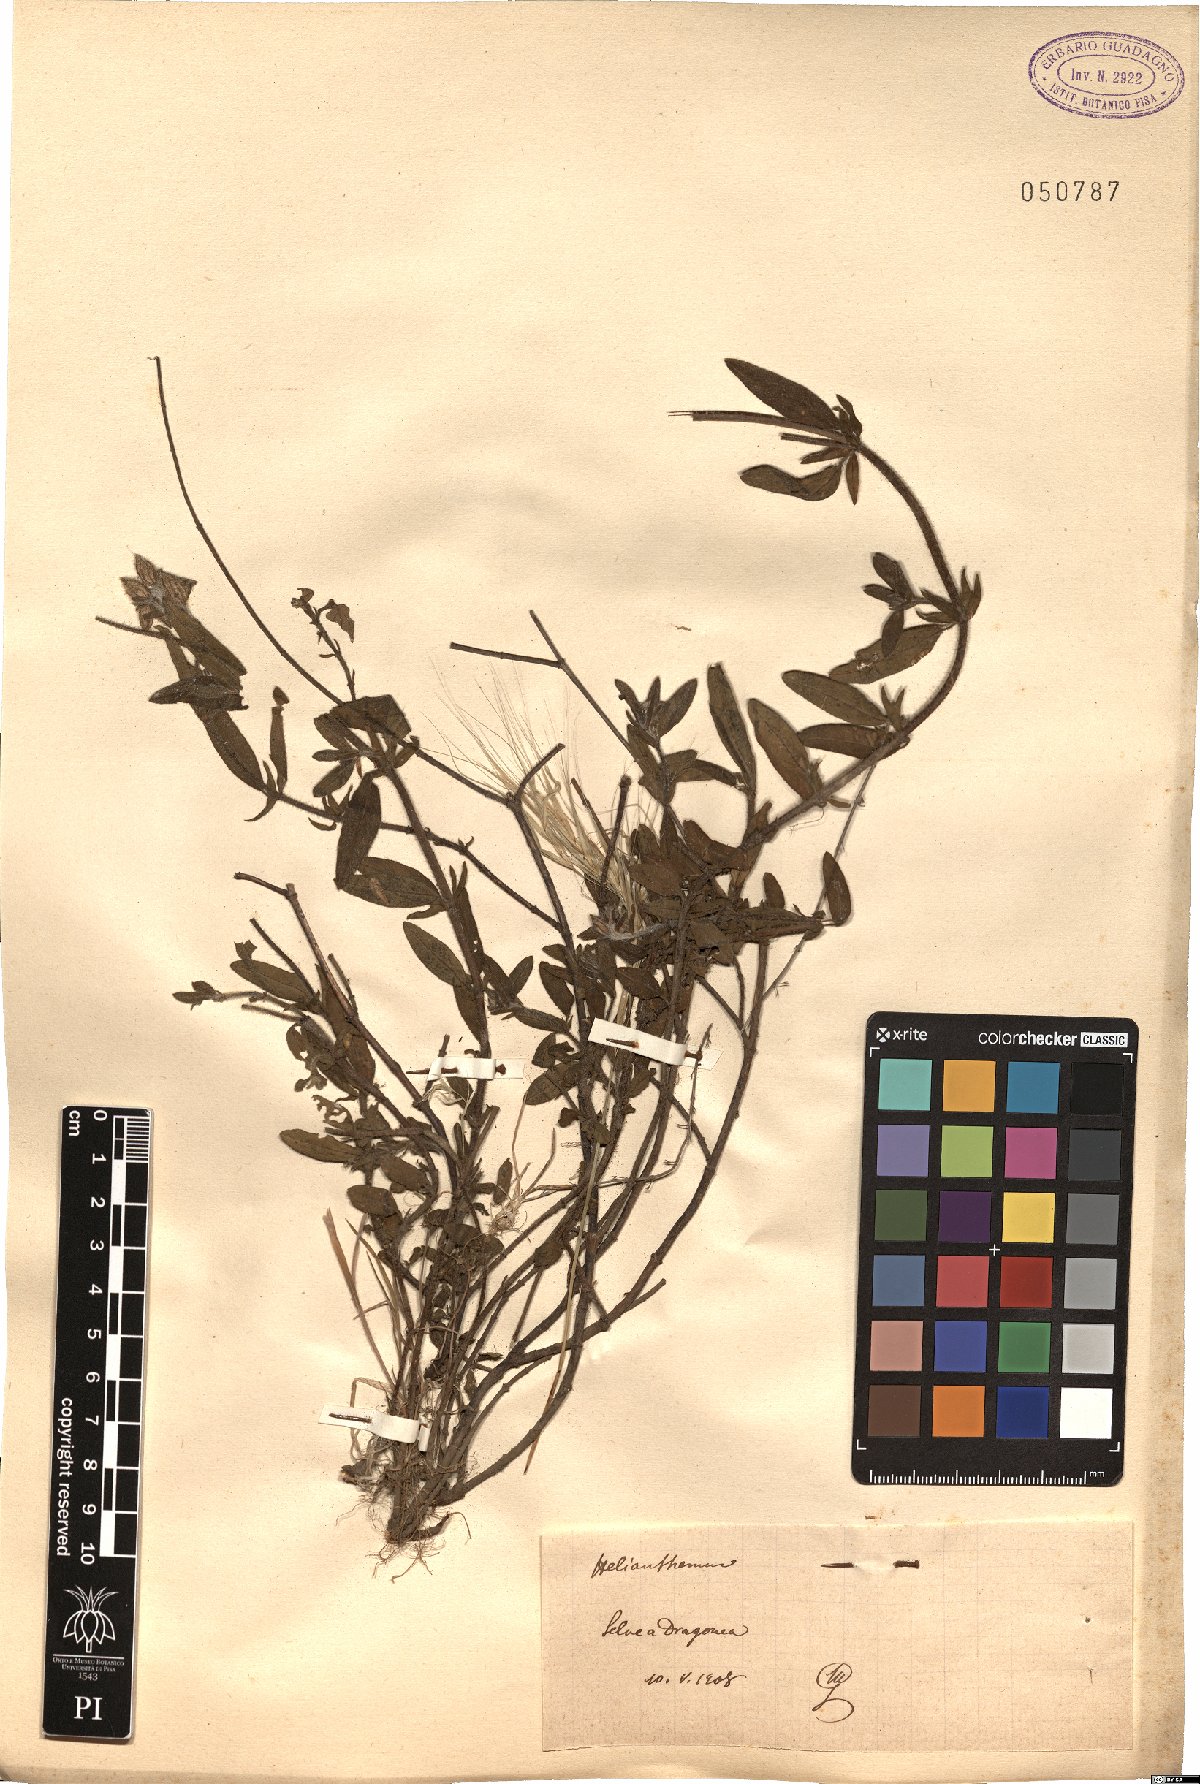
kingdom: Plantae
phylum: Tracheophyta
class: Magnoliopsida
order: Malvales
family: Cistaceae
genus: Helianthemum
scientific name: Helianthemum
